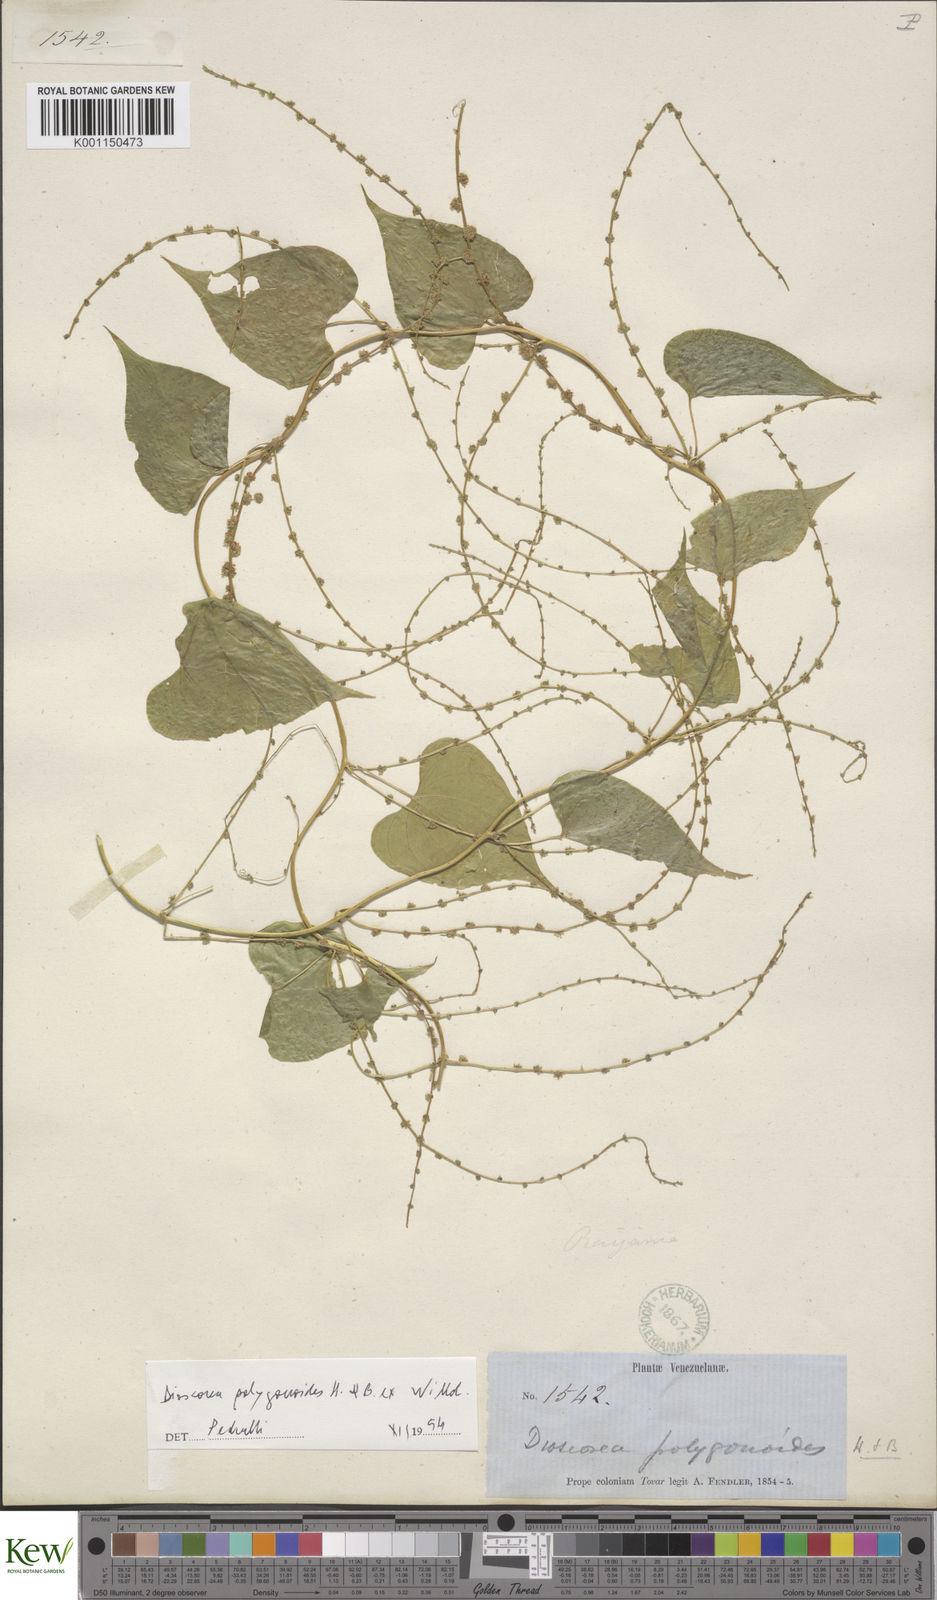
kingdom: Plantae
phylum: Tracheophyta
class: Liliopsida
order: Dioscoreales
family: Dioscoreaceae
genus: Dioscorea
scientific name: Dioscorea polygonoides
